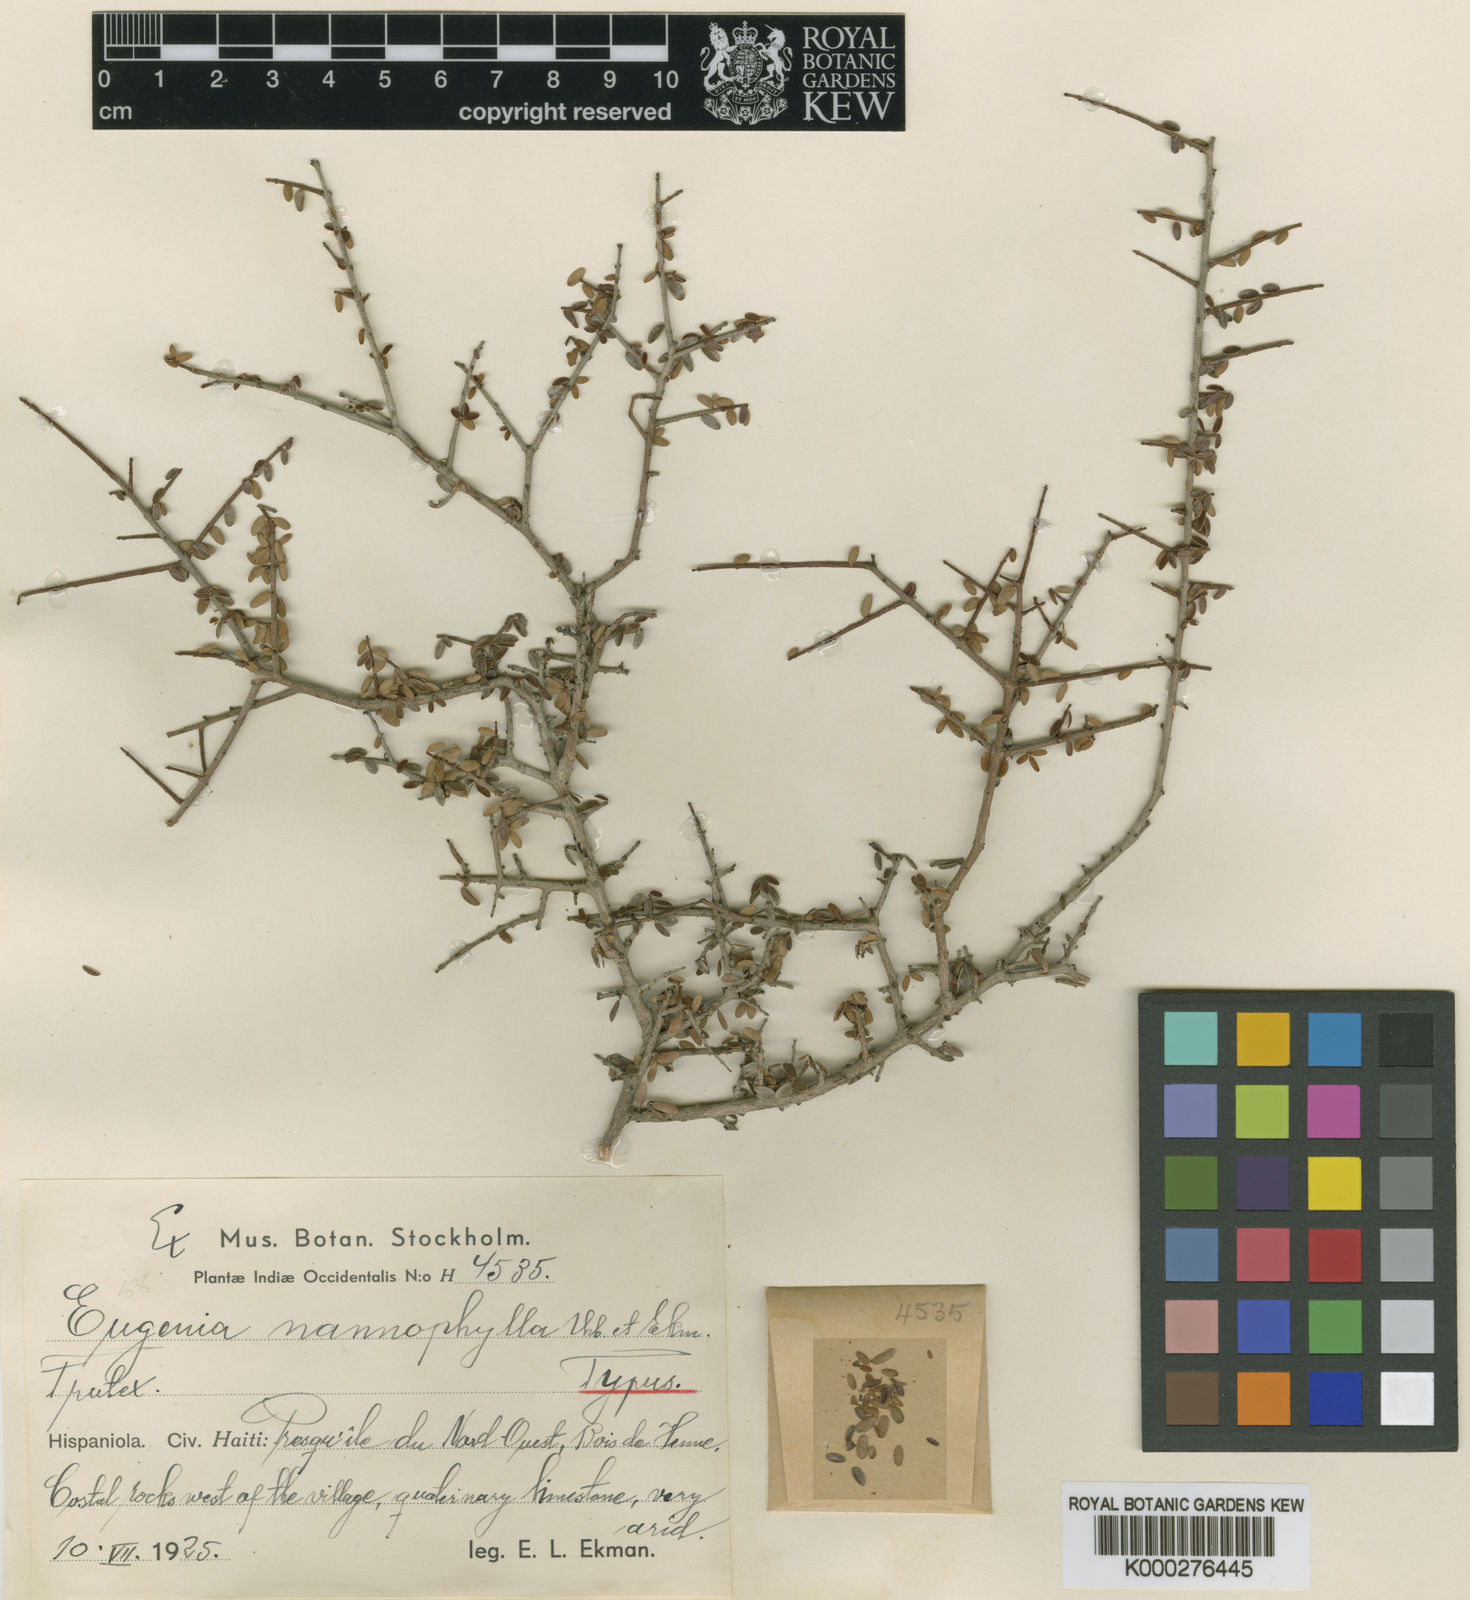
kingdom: Plantae
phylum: Tracheophyta
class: Magnoliopsida
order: Myrtales
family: Myrtaceae
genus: Eugenia
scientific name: Eugenia nannophylla
